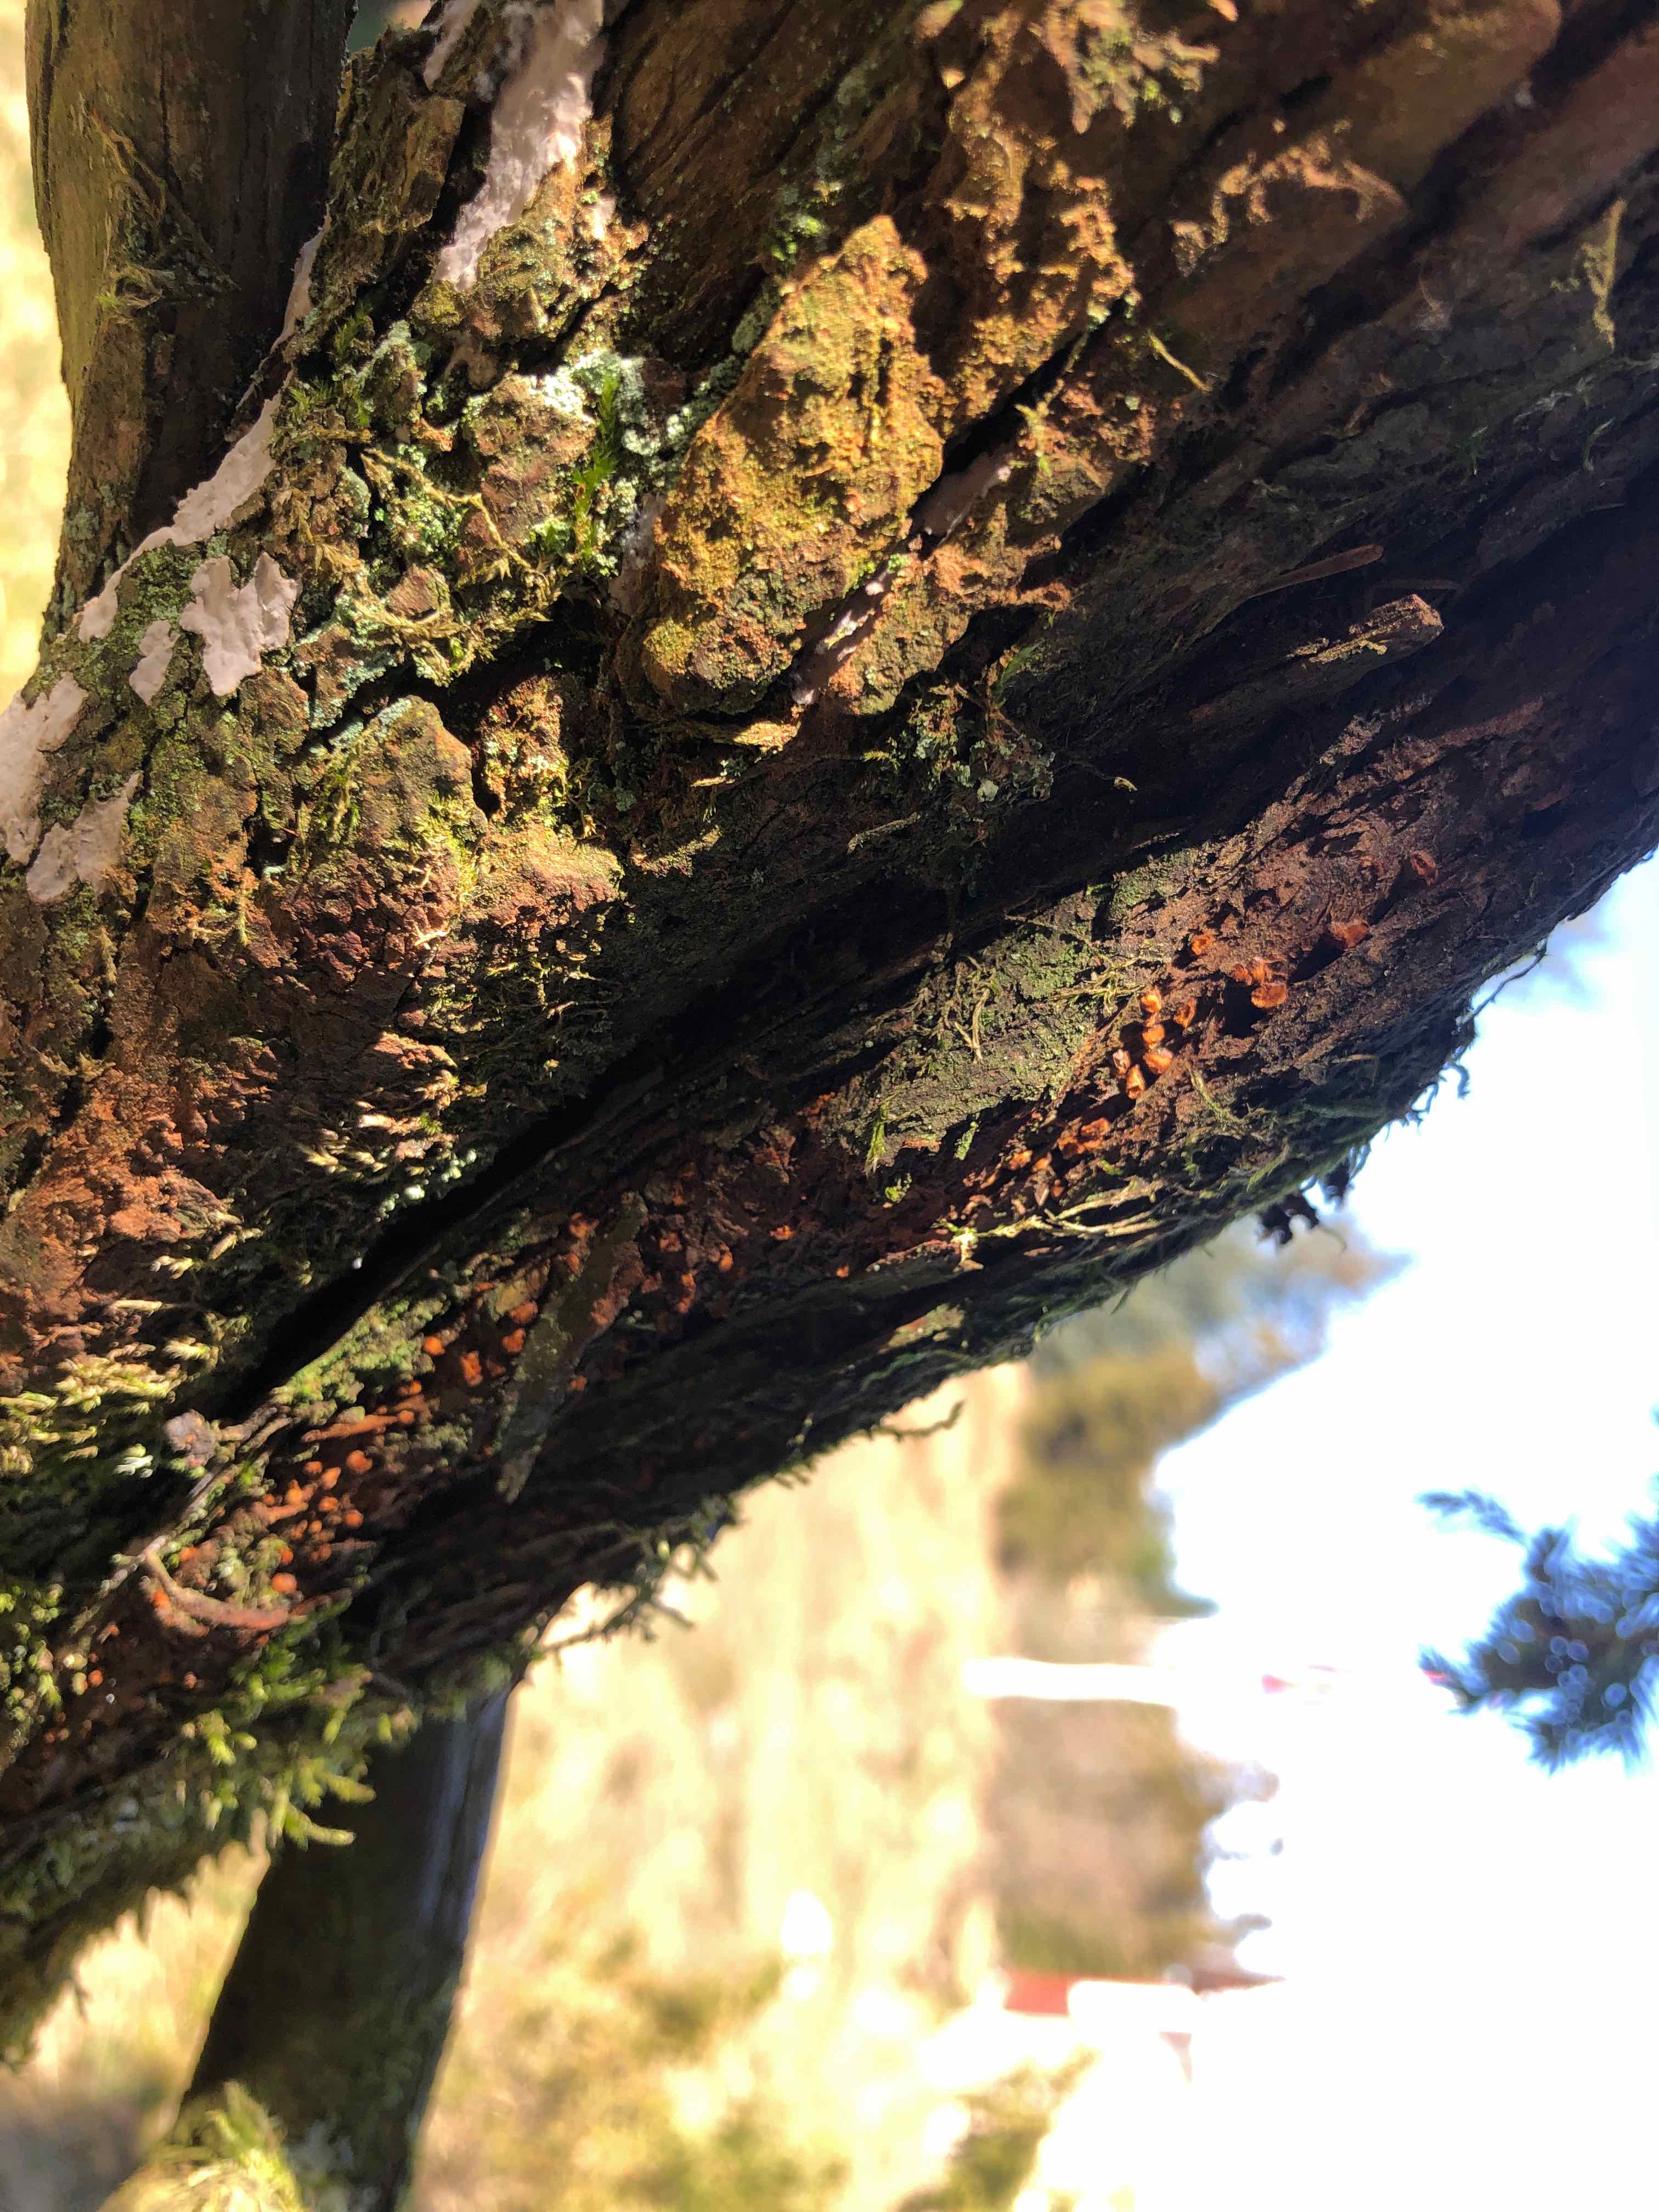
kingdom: Fungi
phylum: Basidiomycota
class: Pucciniomycetes
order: Pucciniales
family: Gymnosporangiaceae
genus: Gymnosporangium
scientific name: Gymnosporangium clavariiforme
